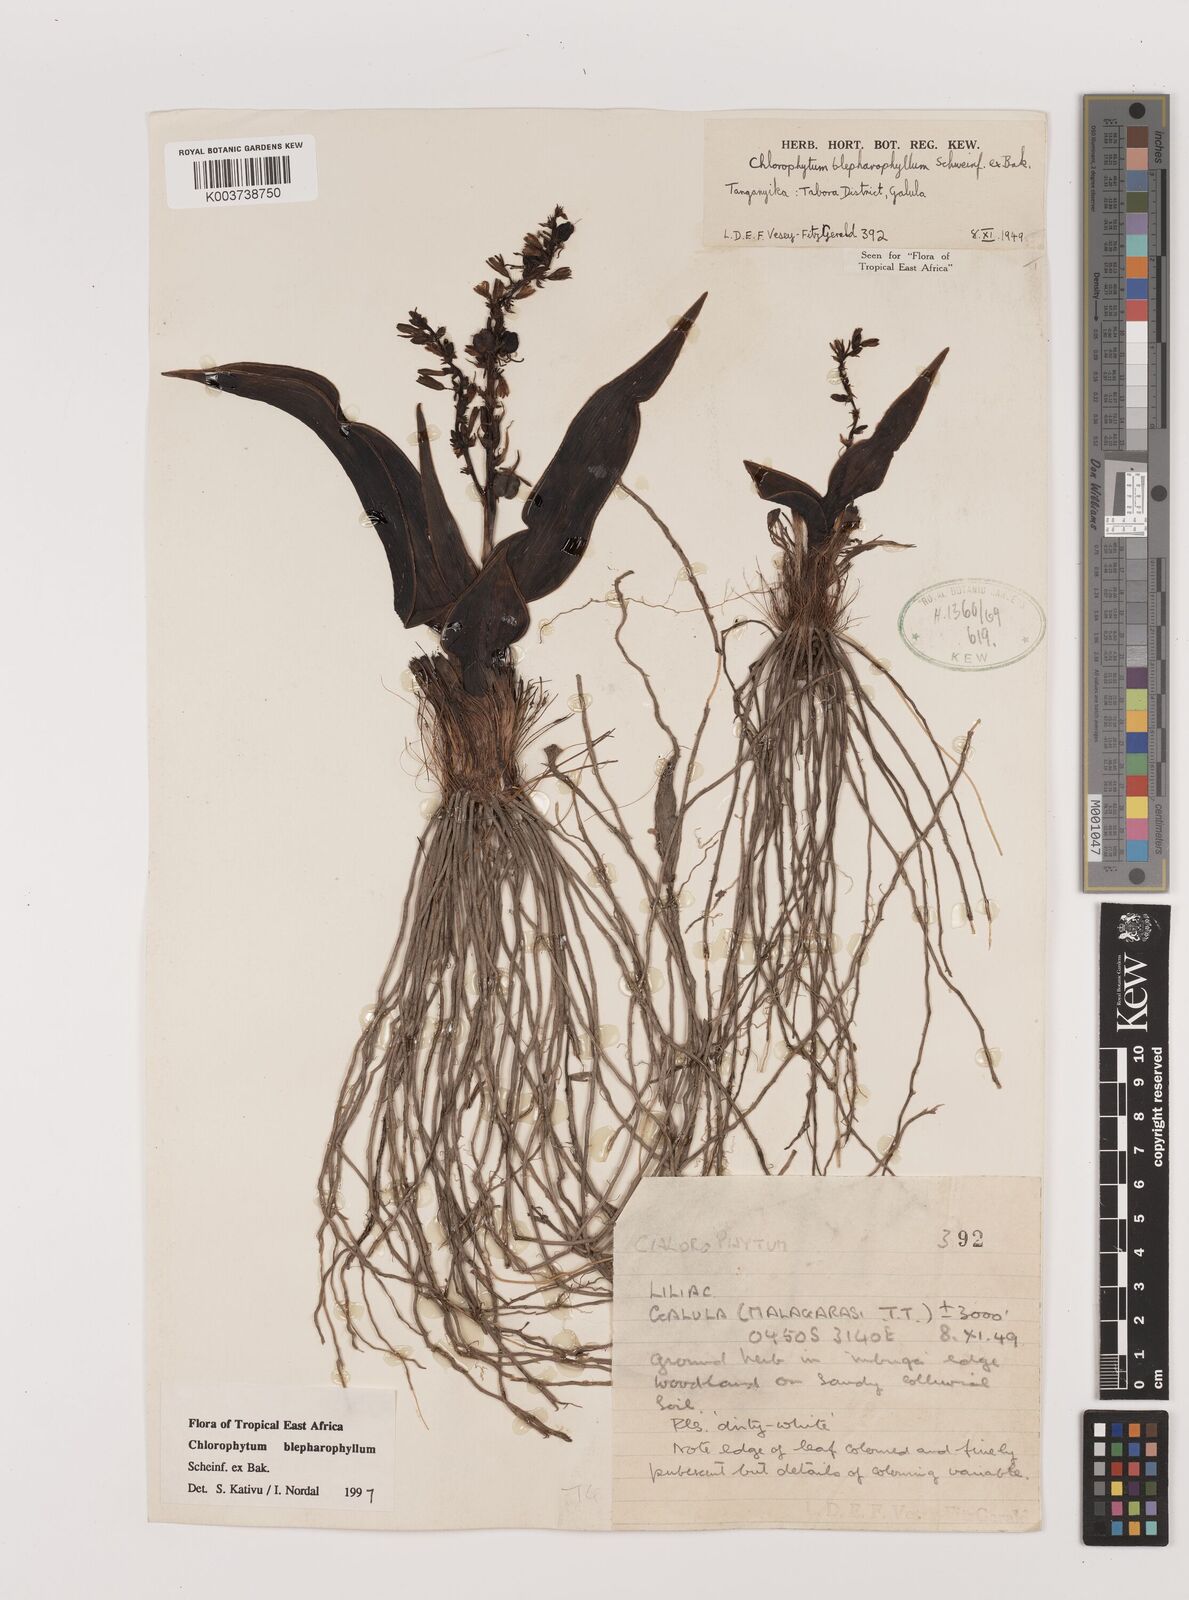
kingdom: Plantae
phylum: Tracheophyta
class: Liliopsida
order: Asparagales
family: Asparagaceae
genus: Chlorophytum
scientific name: Chlorophytum blepharophyllum
